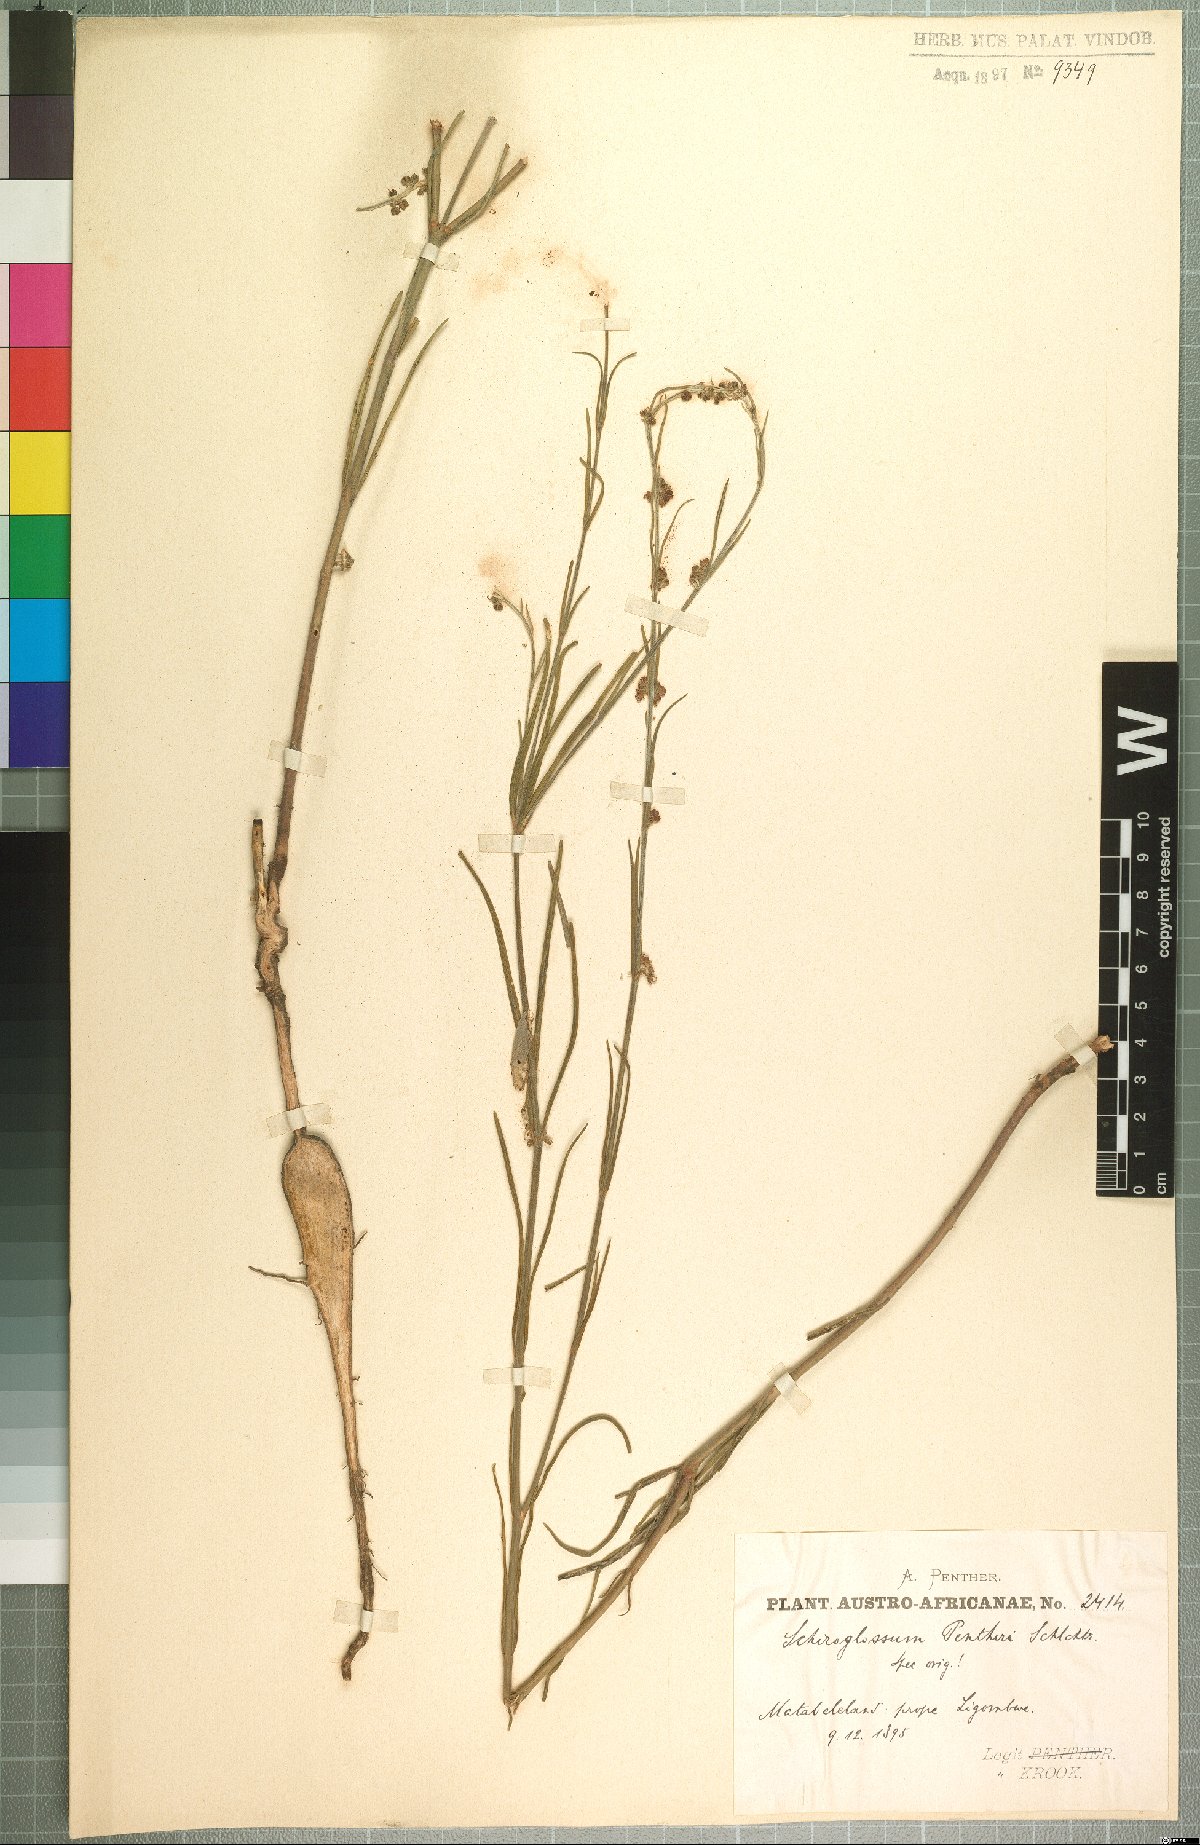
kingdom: Plantae
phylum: Tracheophyta
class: Magnoliopsida
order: Gentianales
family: Apocynaceae
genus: Aspidoglossum
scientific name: Aspidoglossum erubescens
